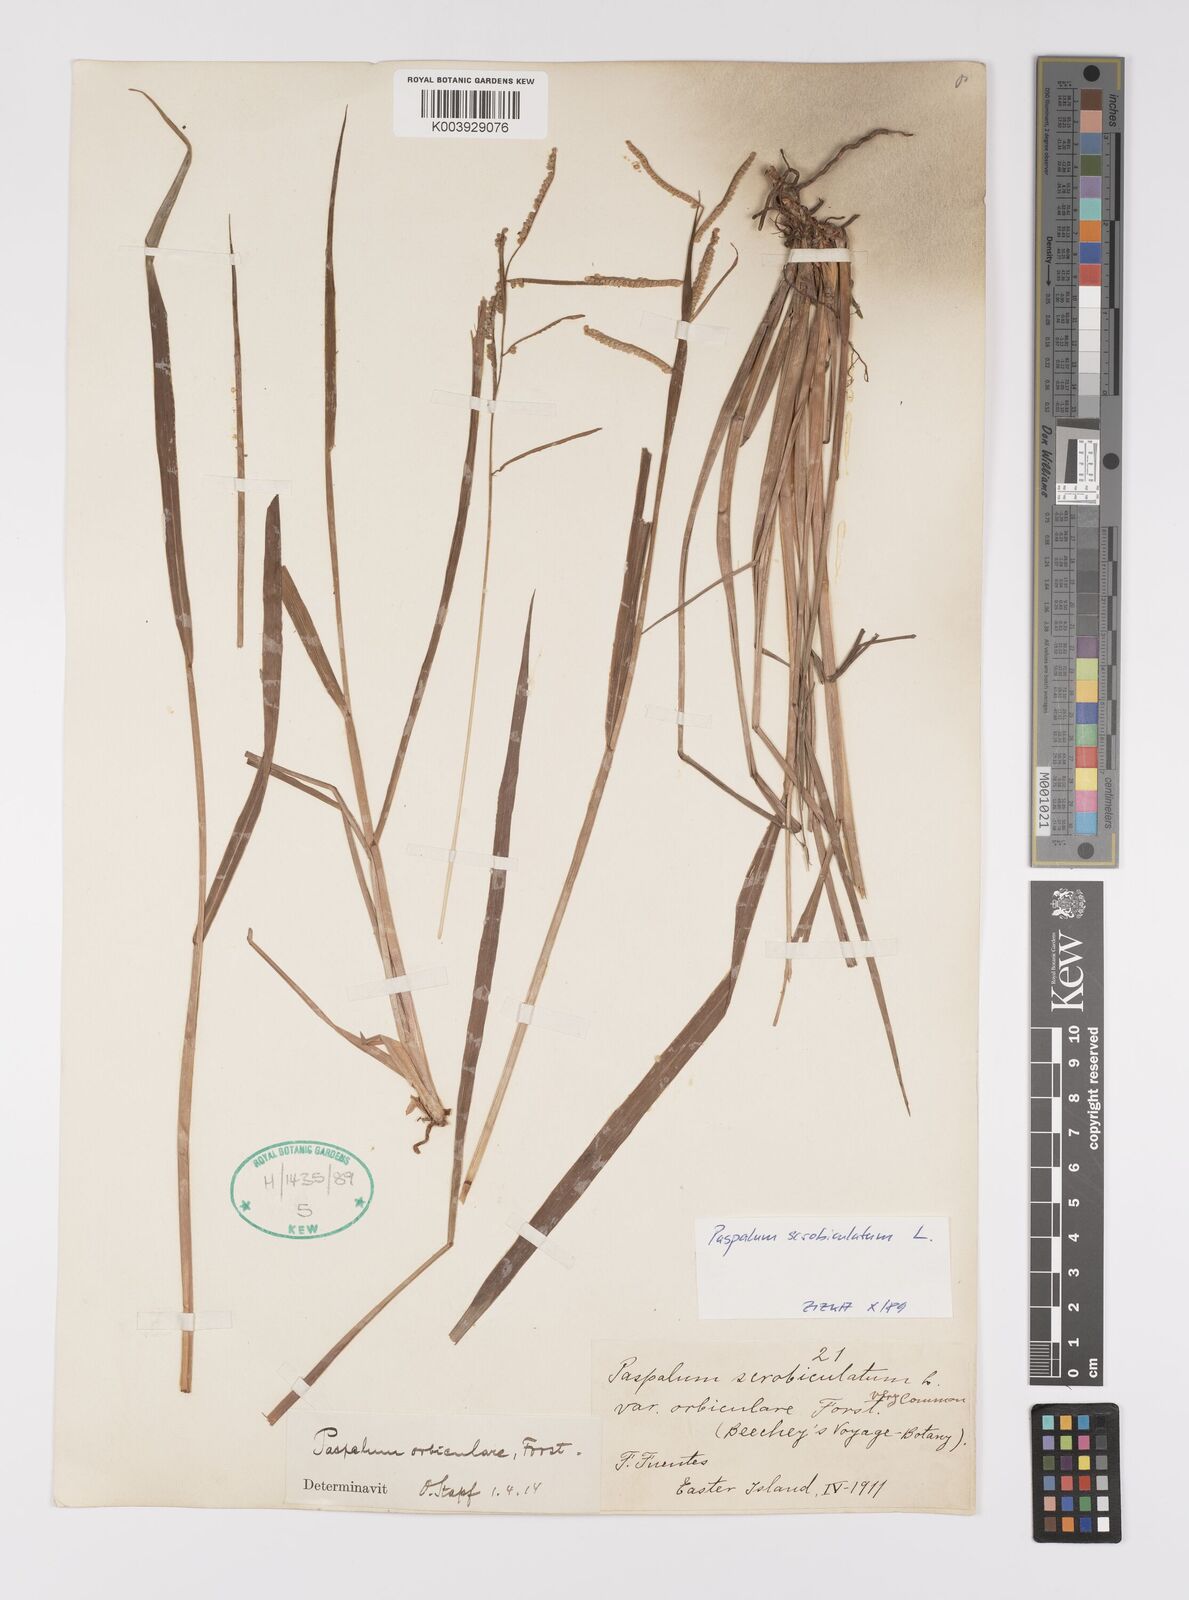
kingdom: Plantae
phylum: Tracheophyta
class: Liliopsida
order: Poales
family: Poaceae
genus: Paspalum
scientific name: Paspalum
